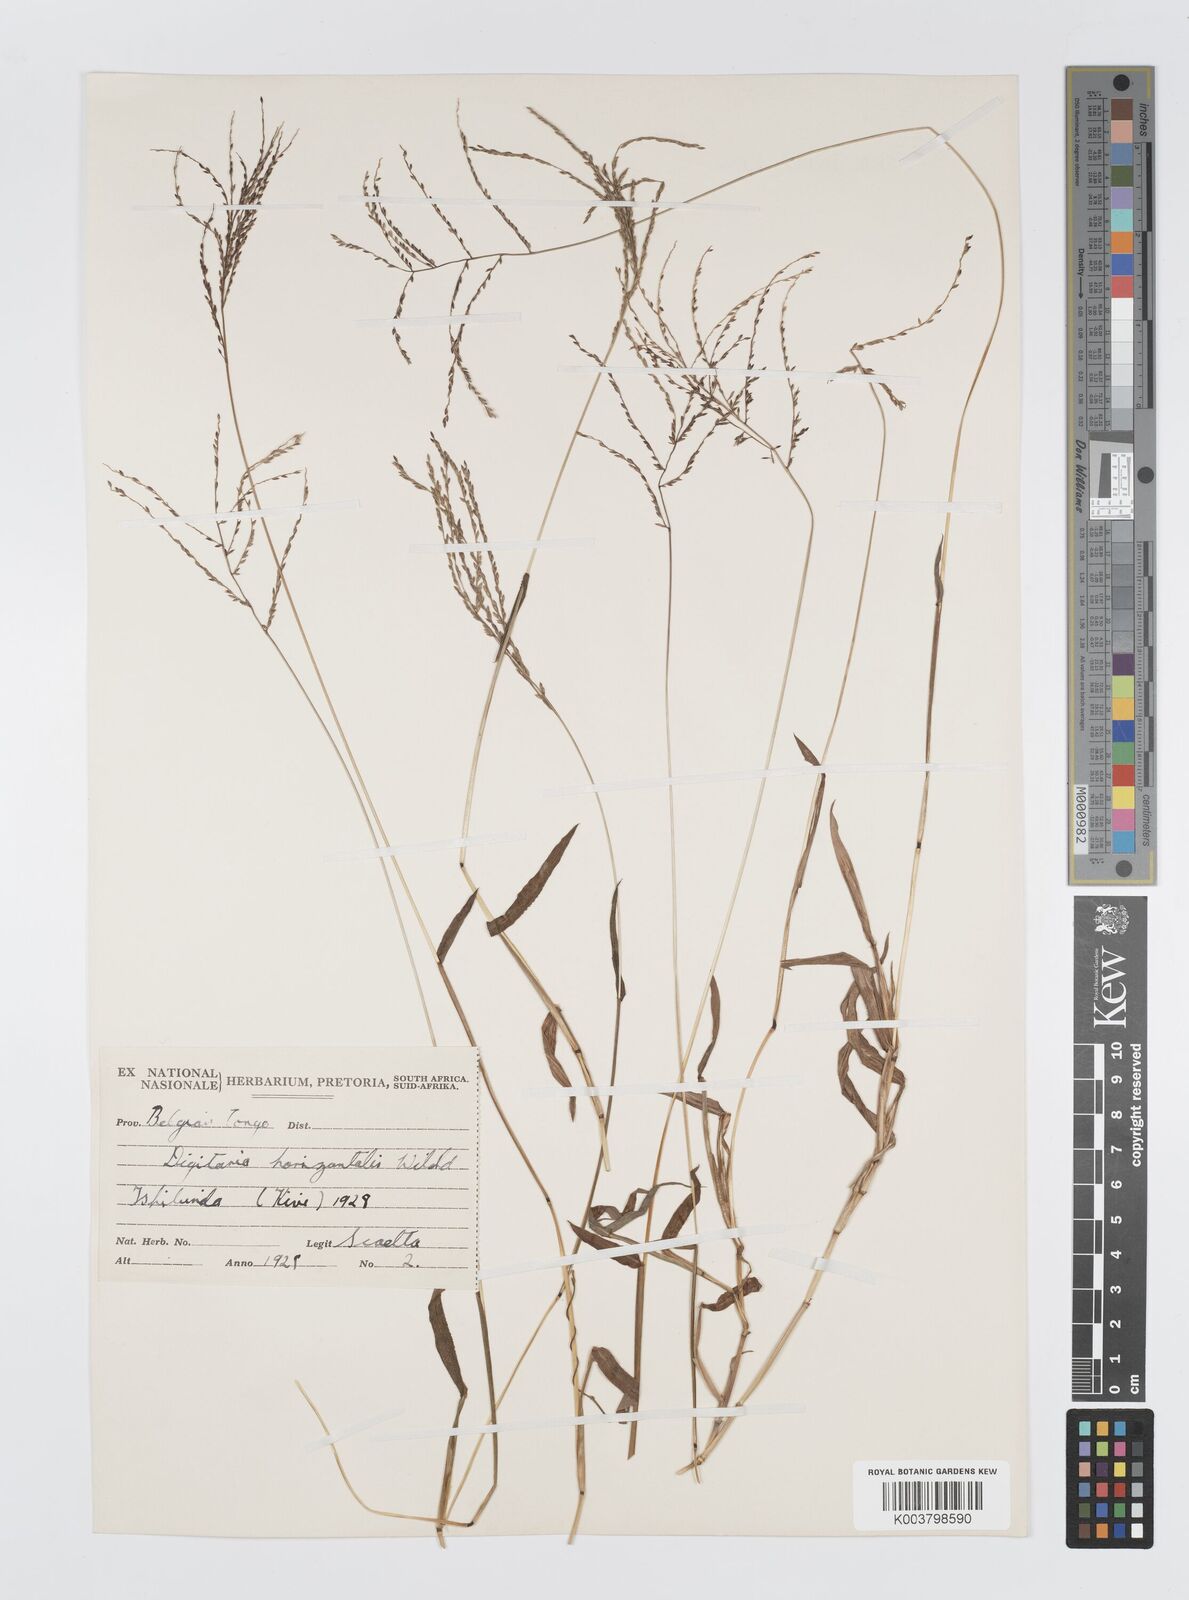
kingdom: Plantae
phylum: Tracheophyta
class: Liliopsida
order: Poales
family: Poaceae
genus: Digitaria
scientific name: Digitaria pearsonii
